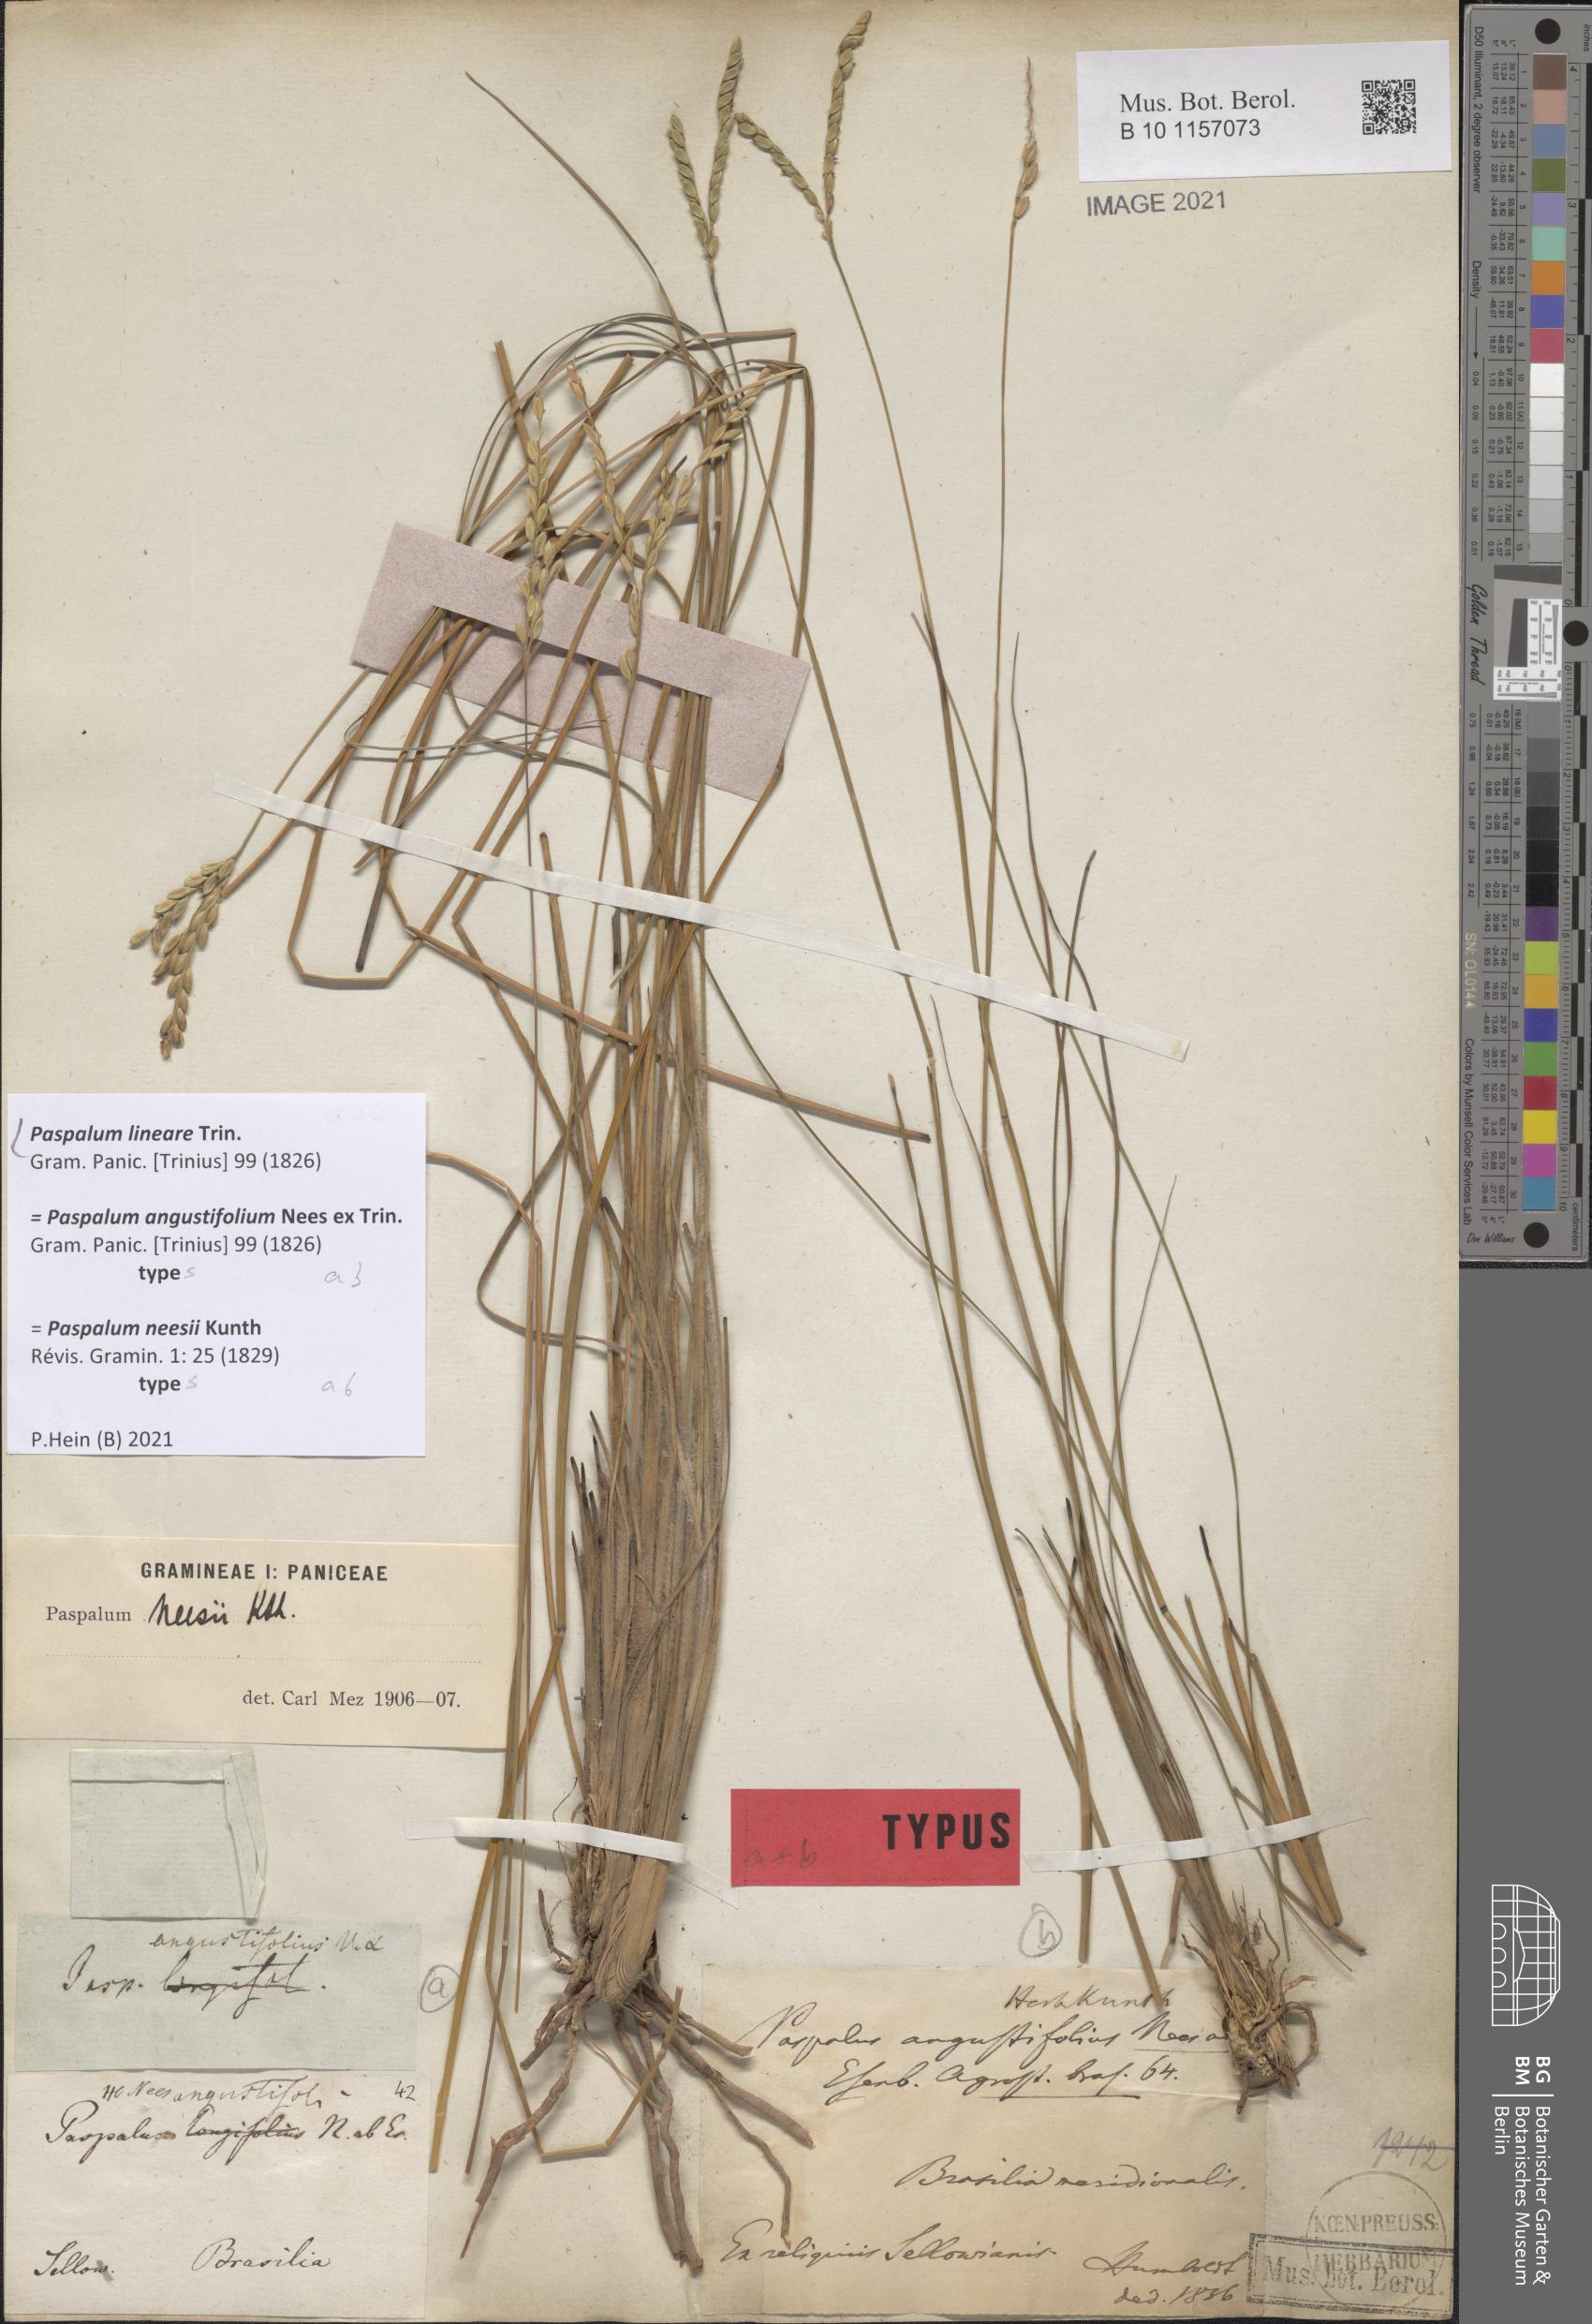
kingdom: Plantae
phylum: Tracheophyta
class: Liliopsida
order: Poales
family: Poaceae
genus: Paspalum
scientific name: Paspalum lineare
